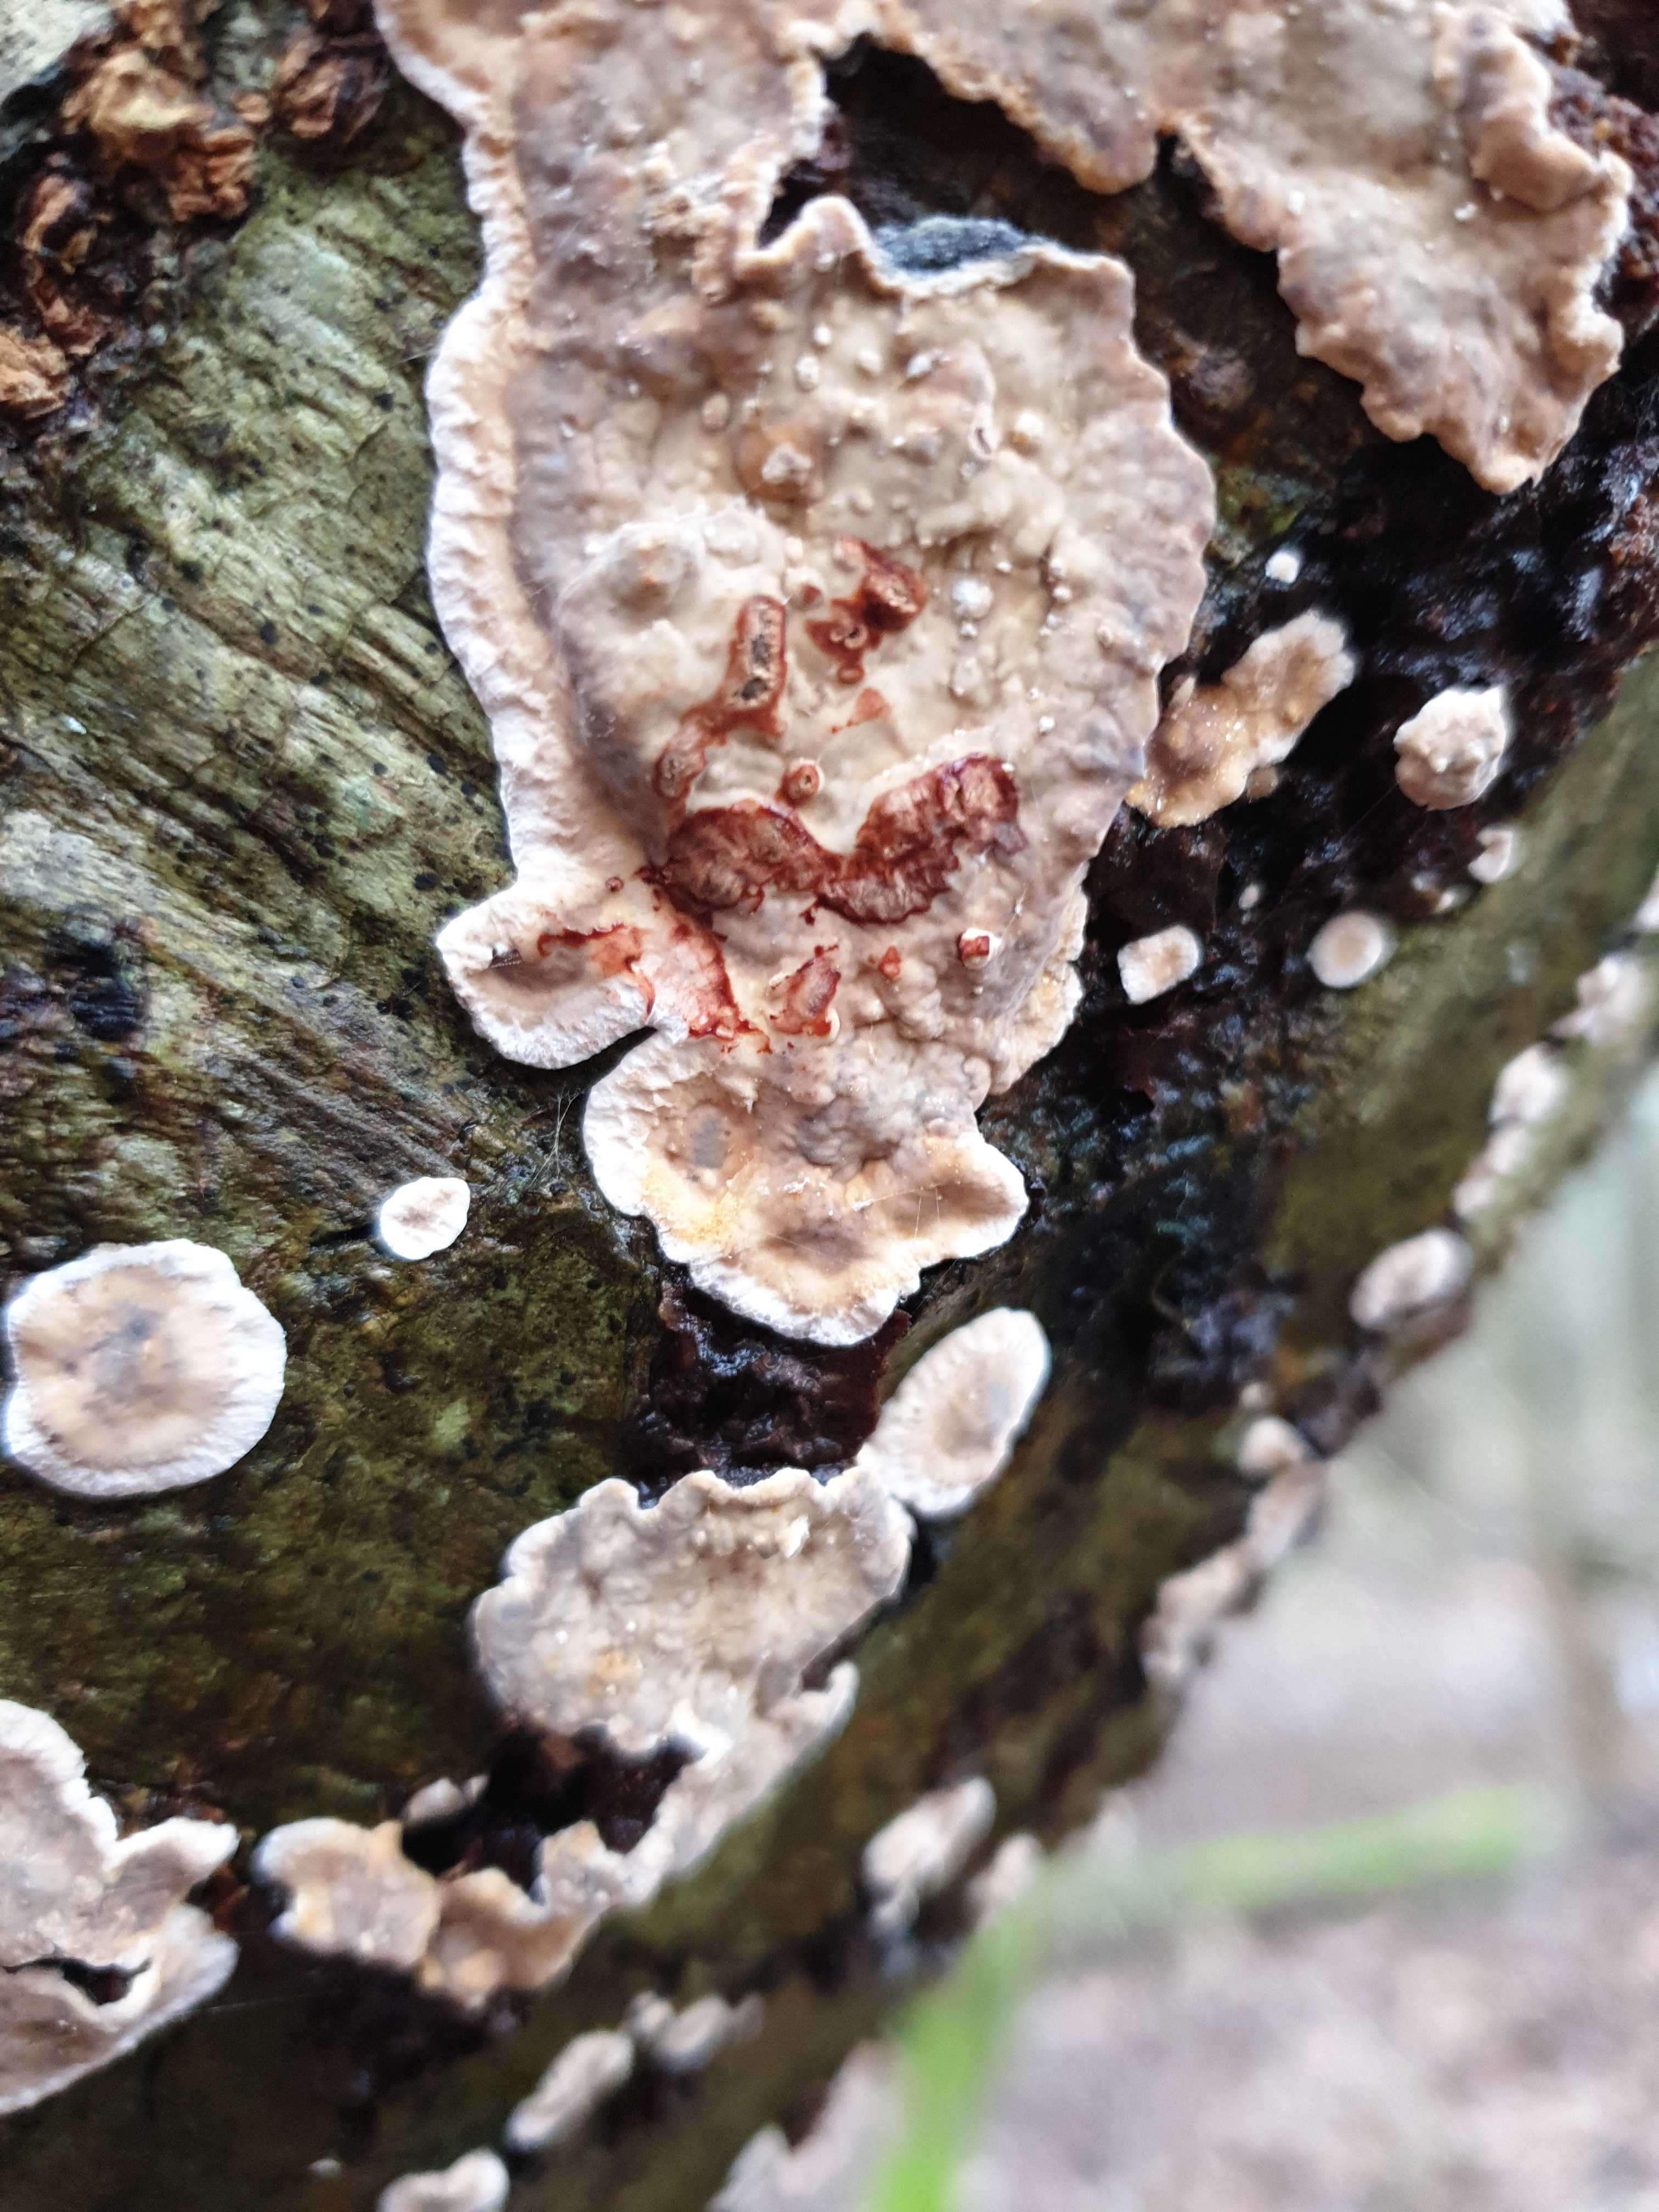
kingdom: Fungi
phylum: Basidiomycota
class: Agaricomycetes
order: Russulales
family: Stereaceae
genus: Stereum
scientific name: Stereum rugosum
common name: rynket lædersvamp
